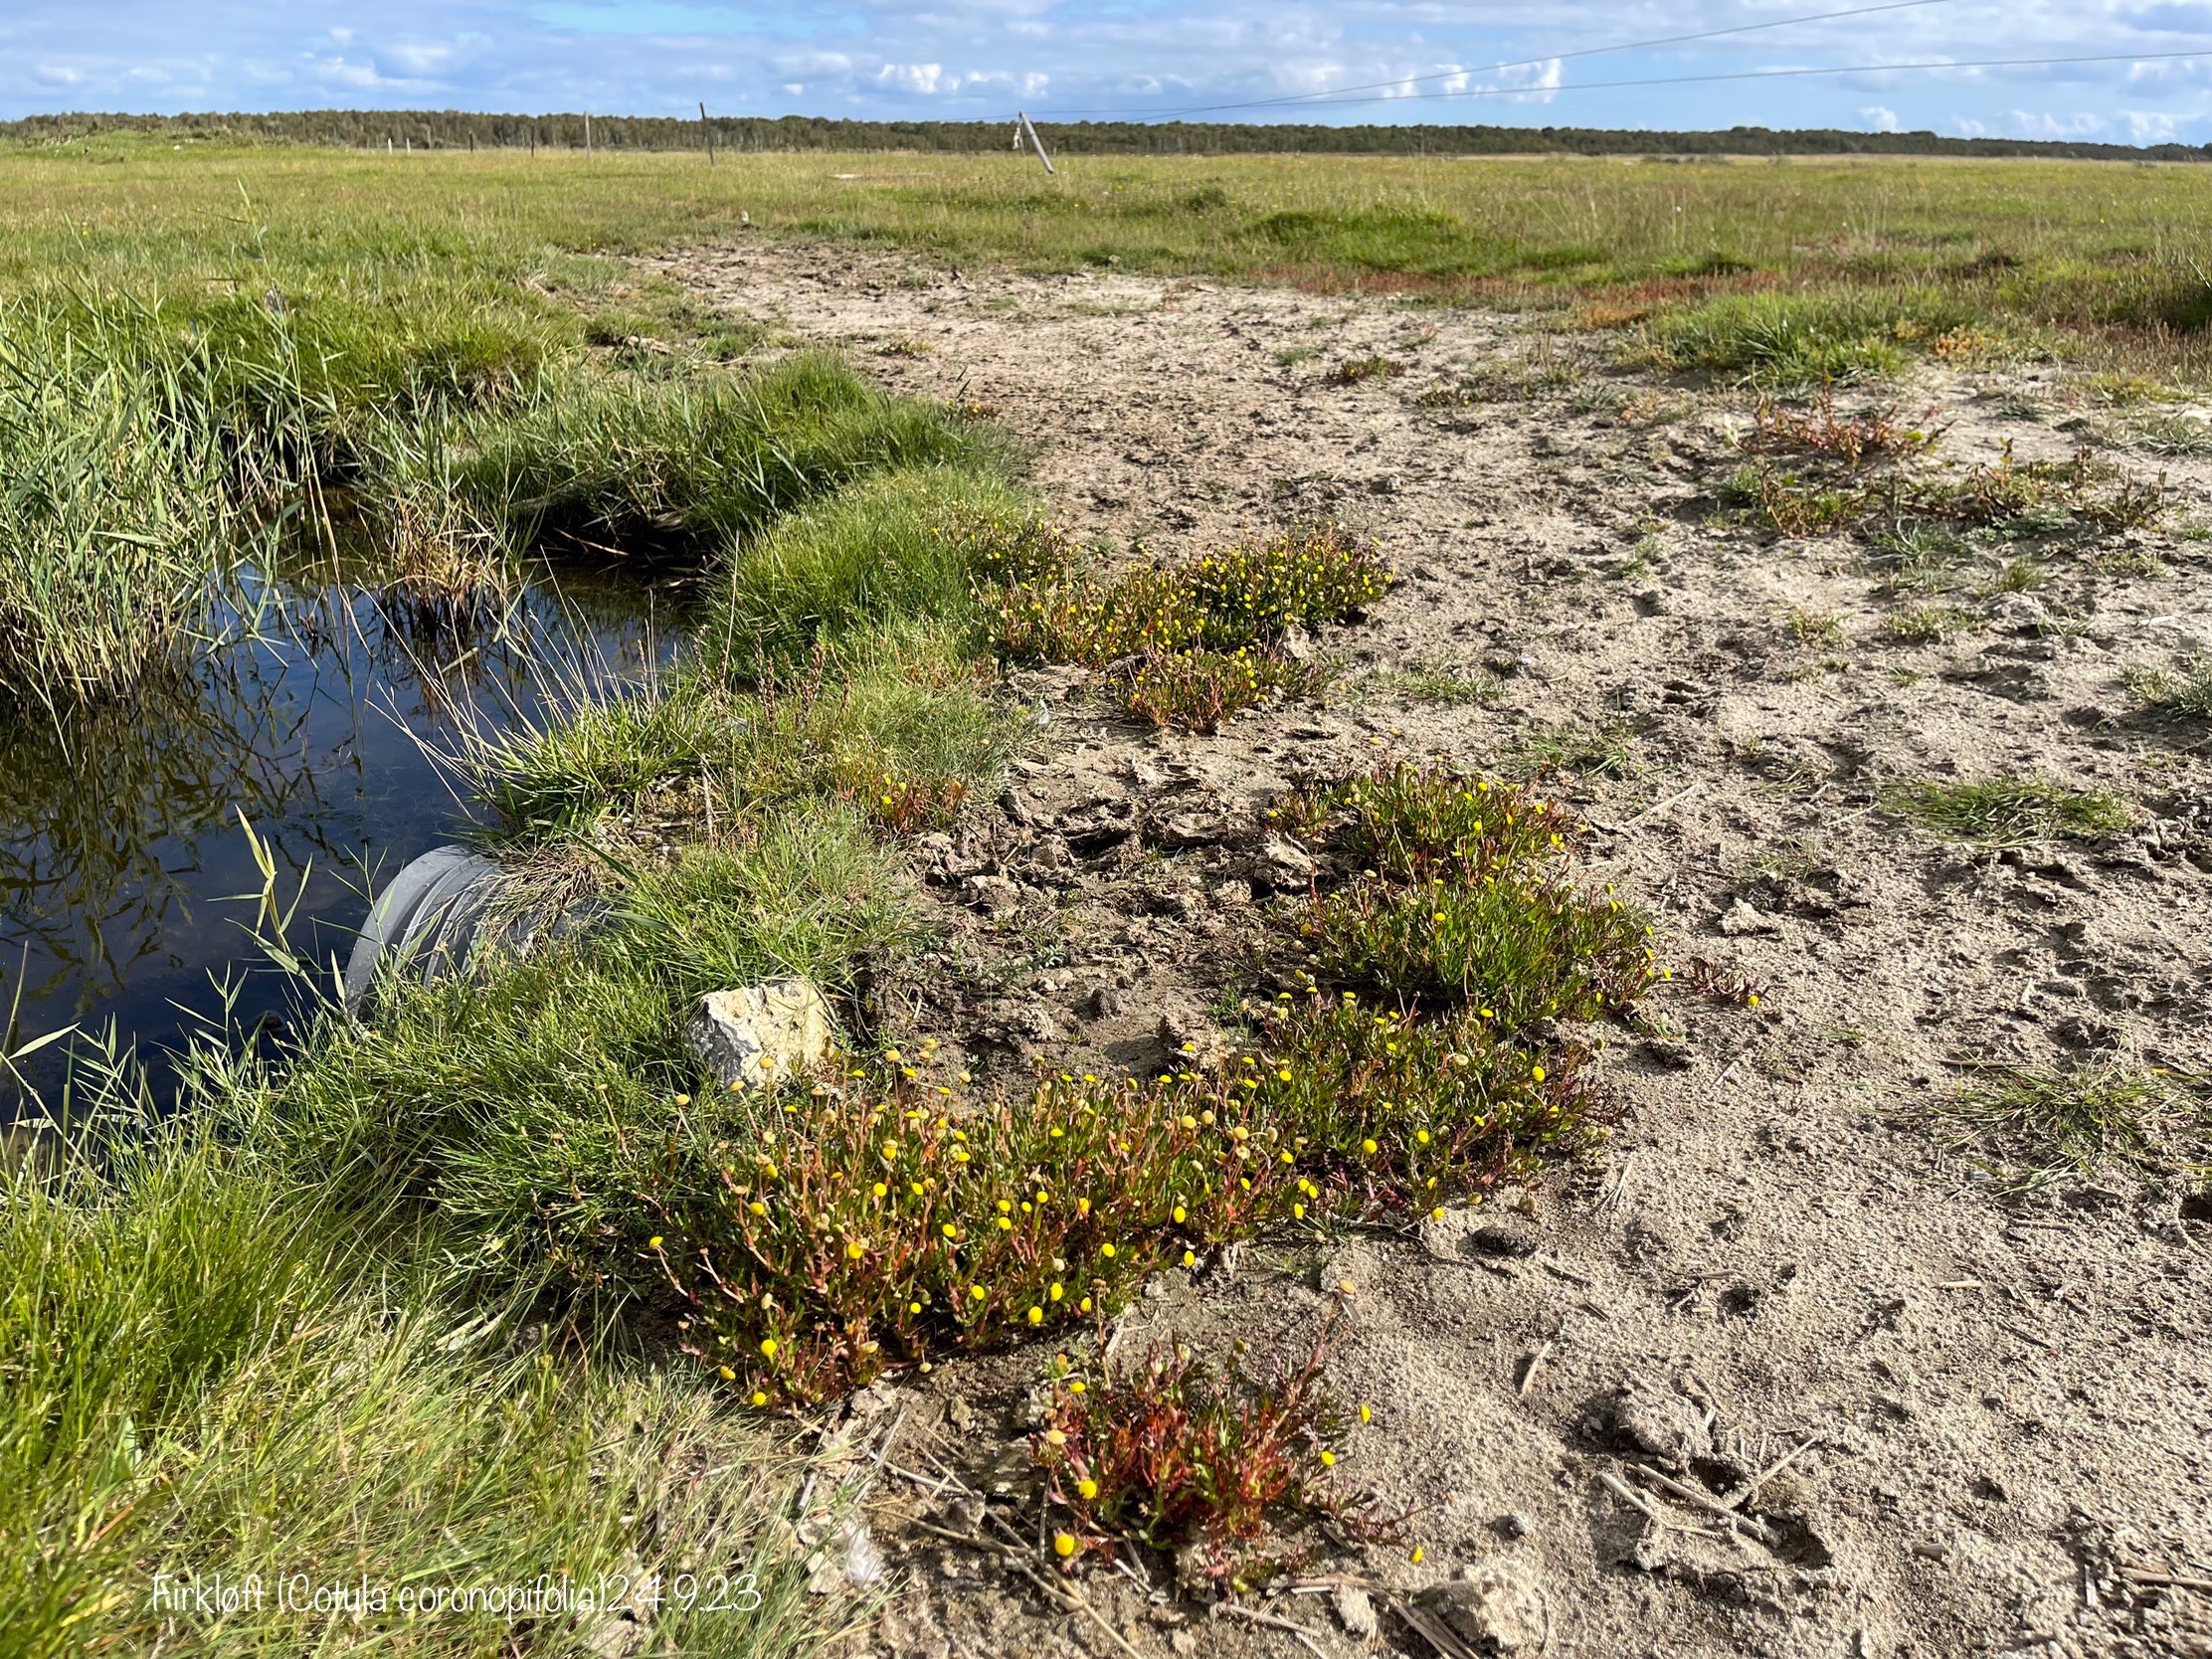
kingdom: Plantae
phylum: Tracheophyta
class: Magnoliopsida
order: Asterales
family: Asteraceae
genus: Cotula
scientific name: Cotula coronopifolia
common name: Firkløft
